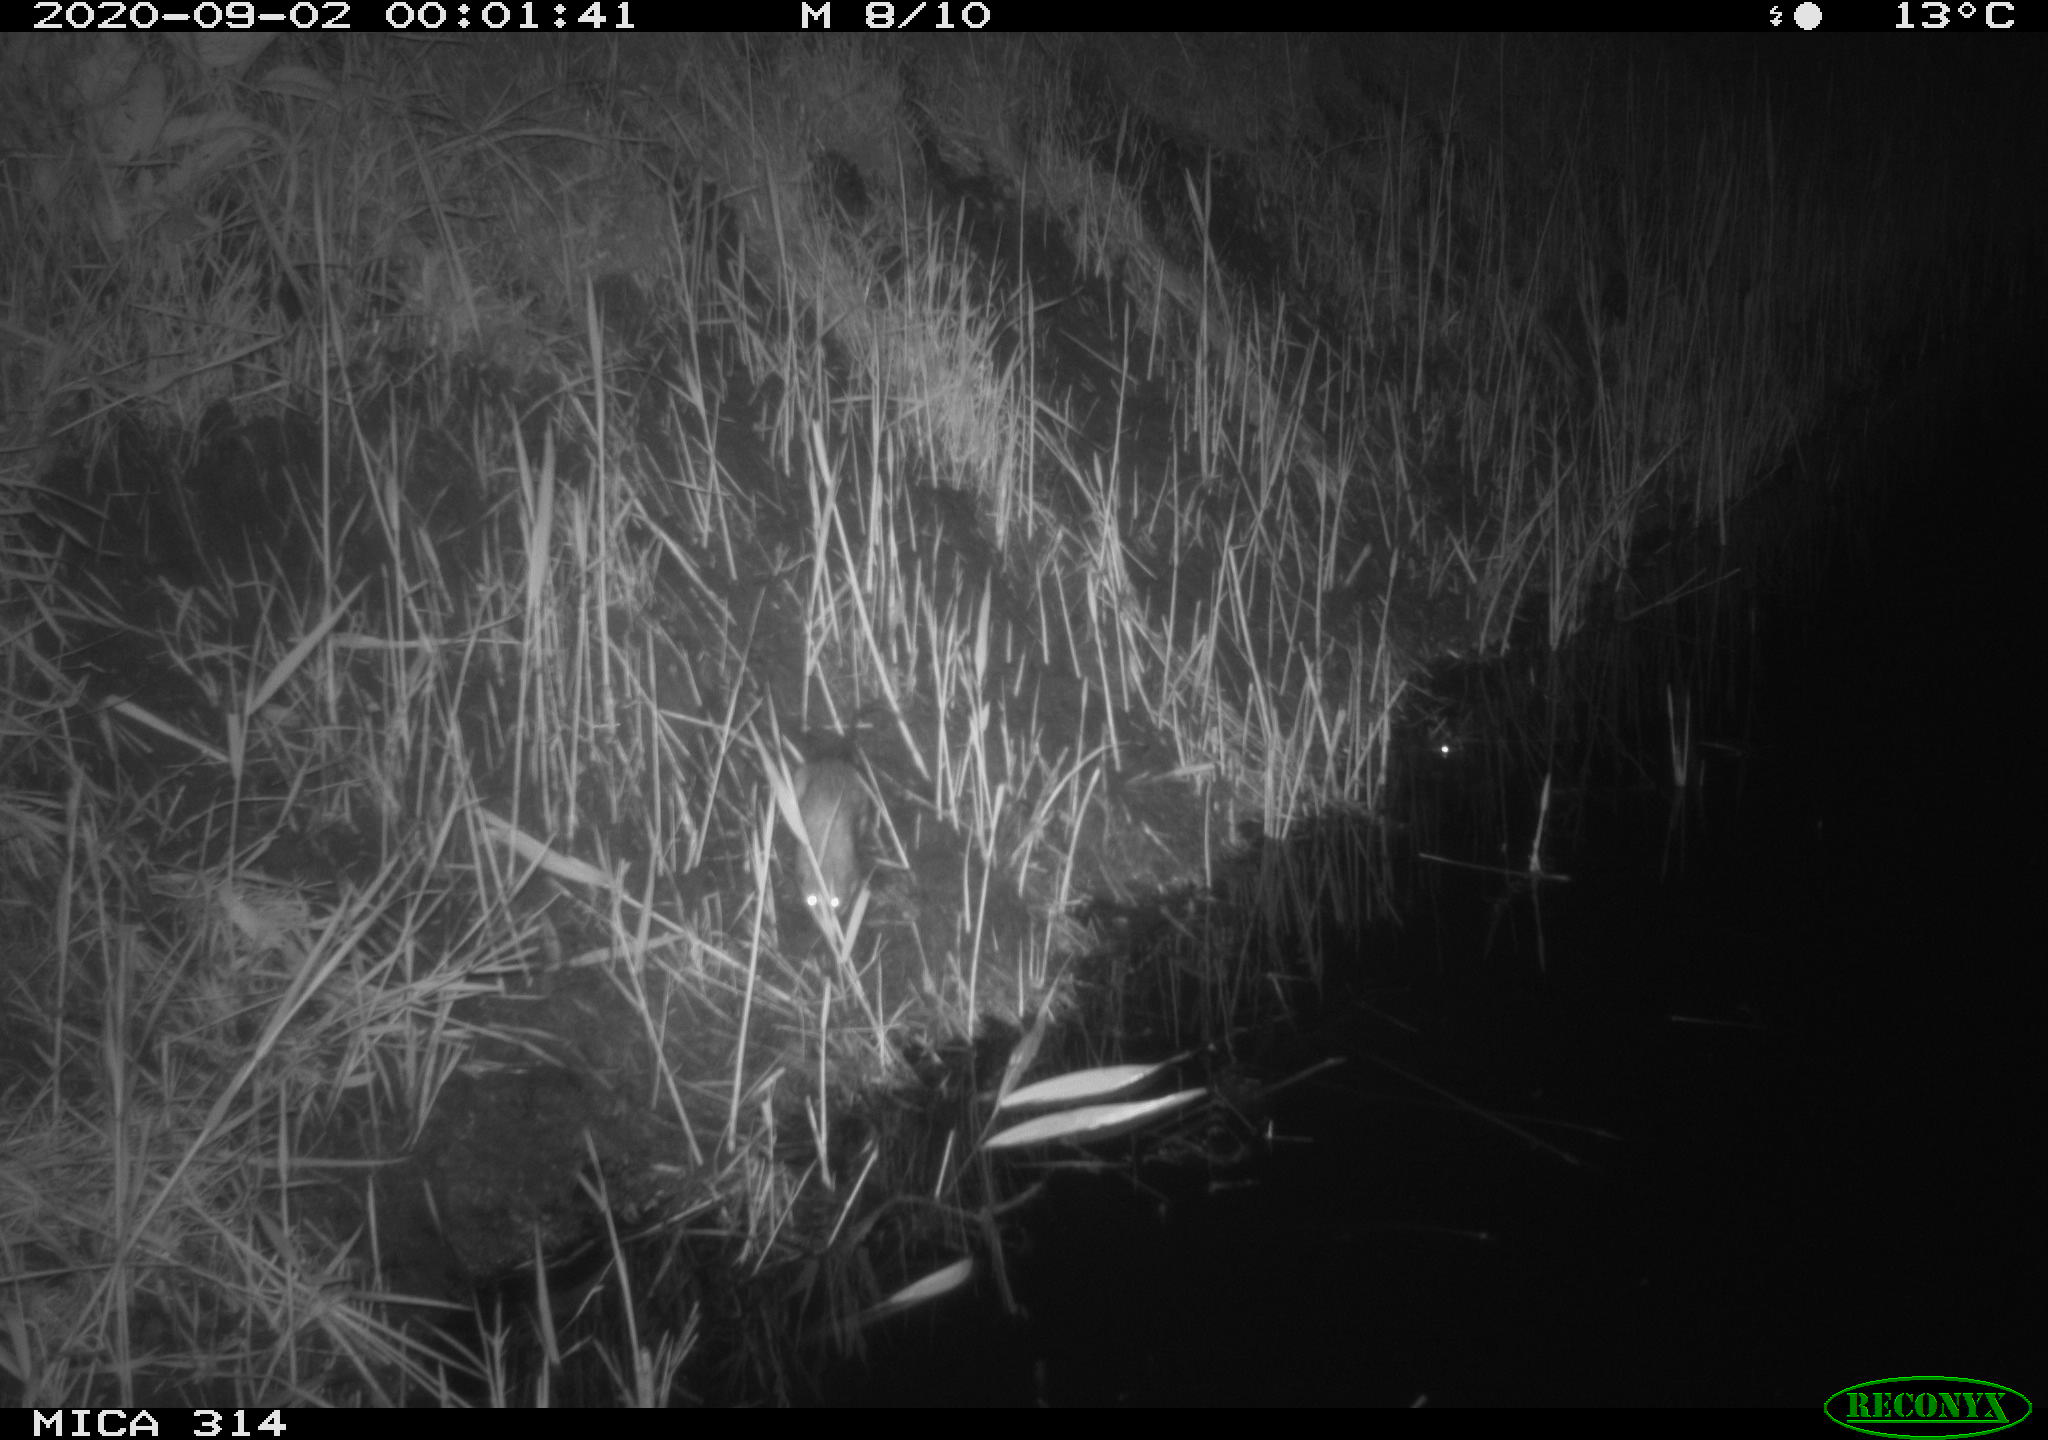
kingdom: Animalia
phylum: Chordata
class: Mammalia
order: Rodentia
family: Muridae
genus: Rattus
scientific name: Rattus norvegicus
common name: Brown rat
